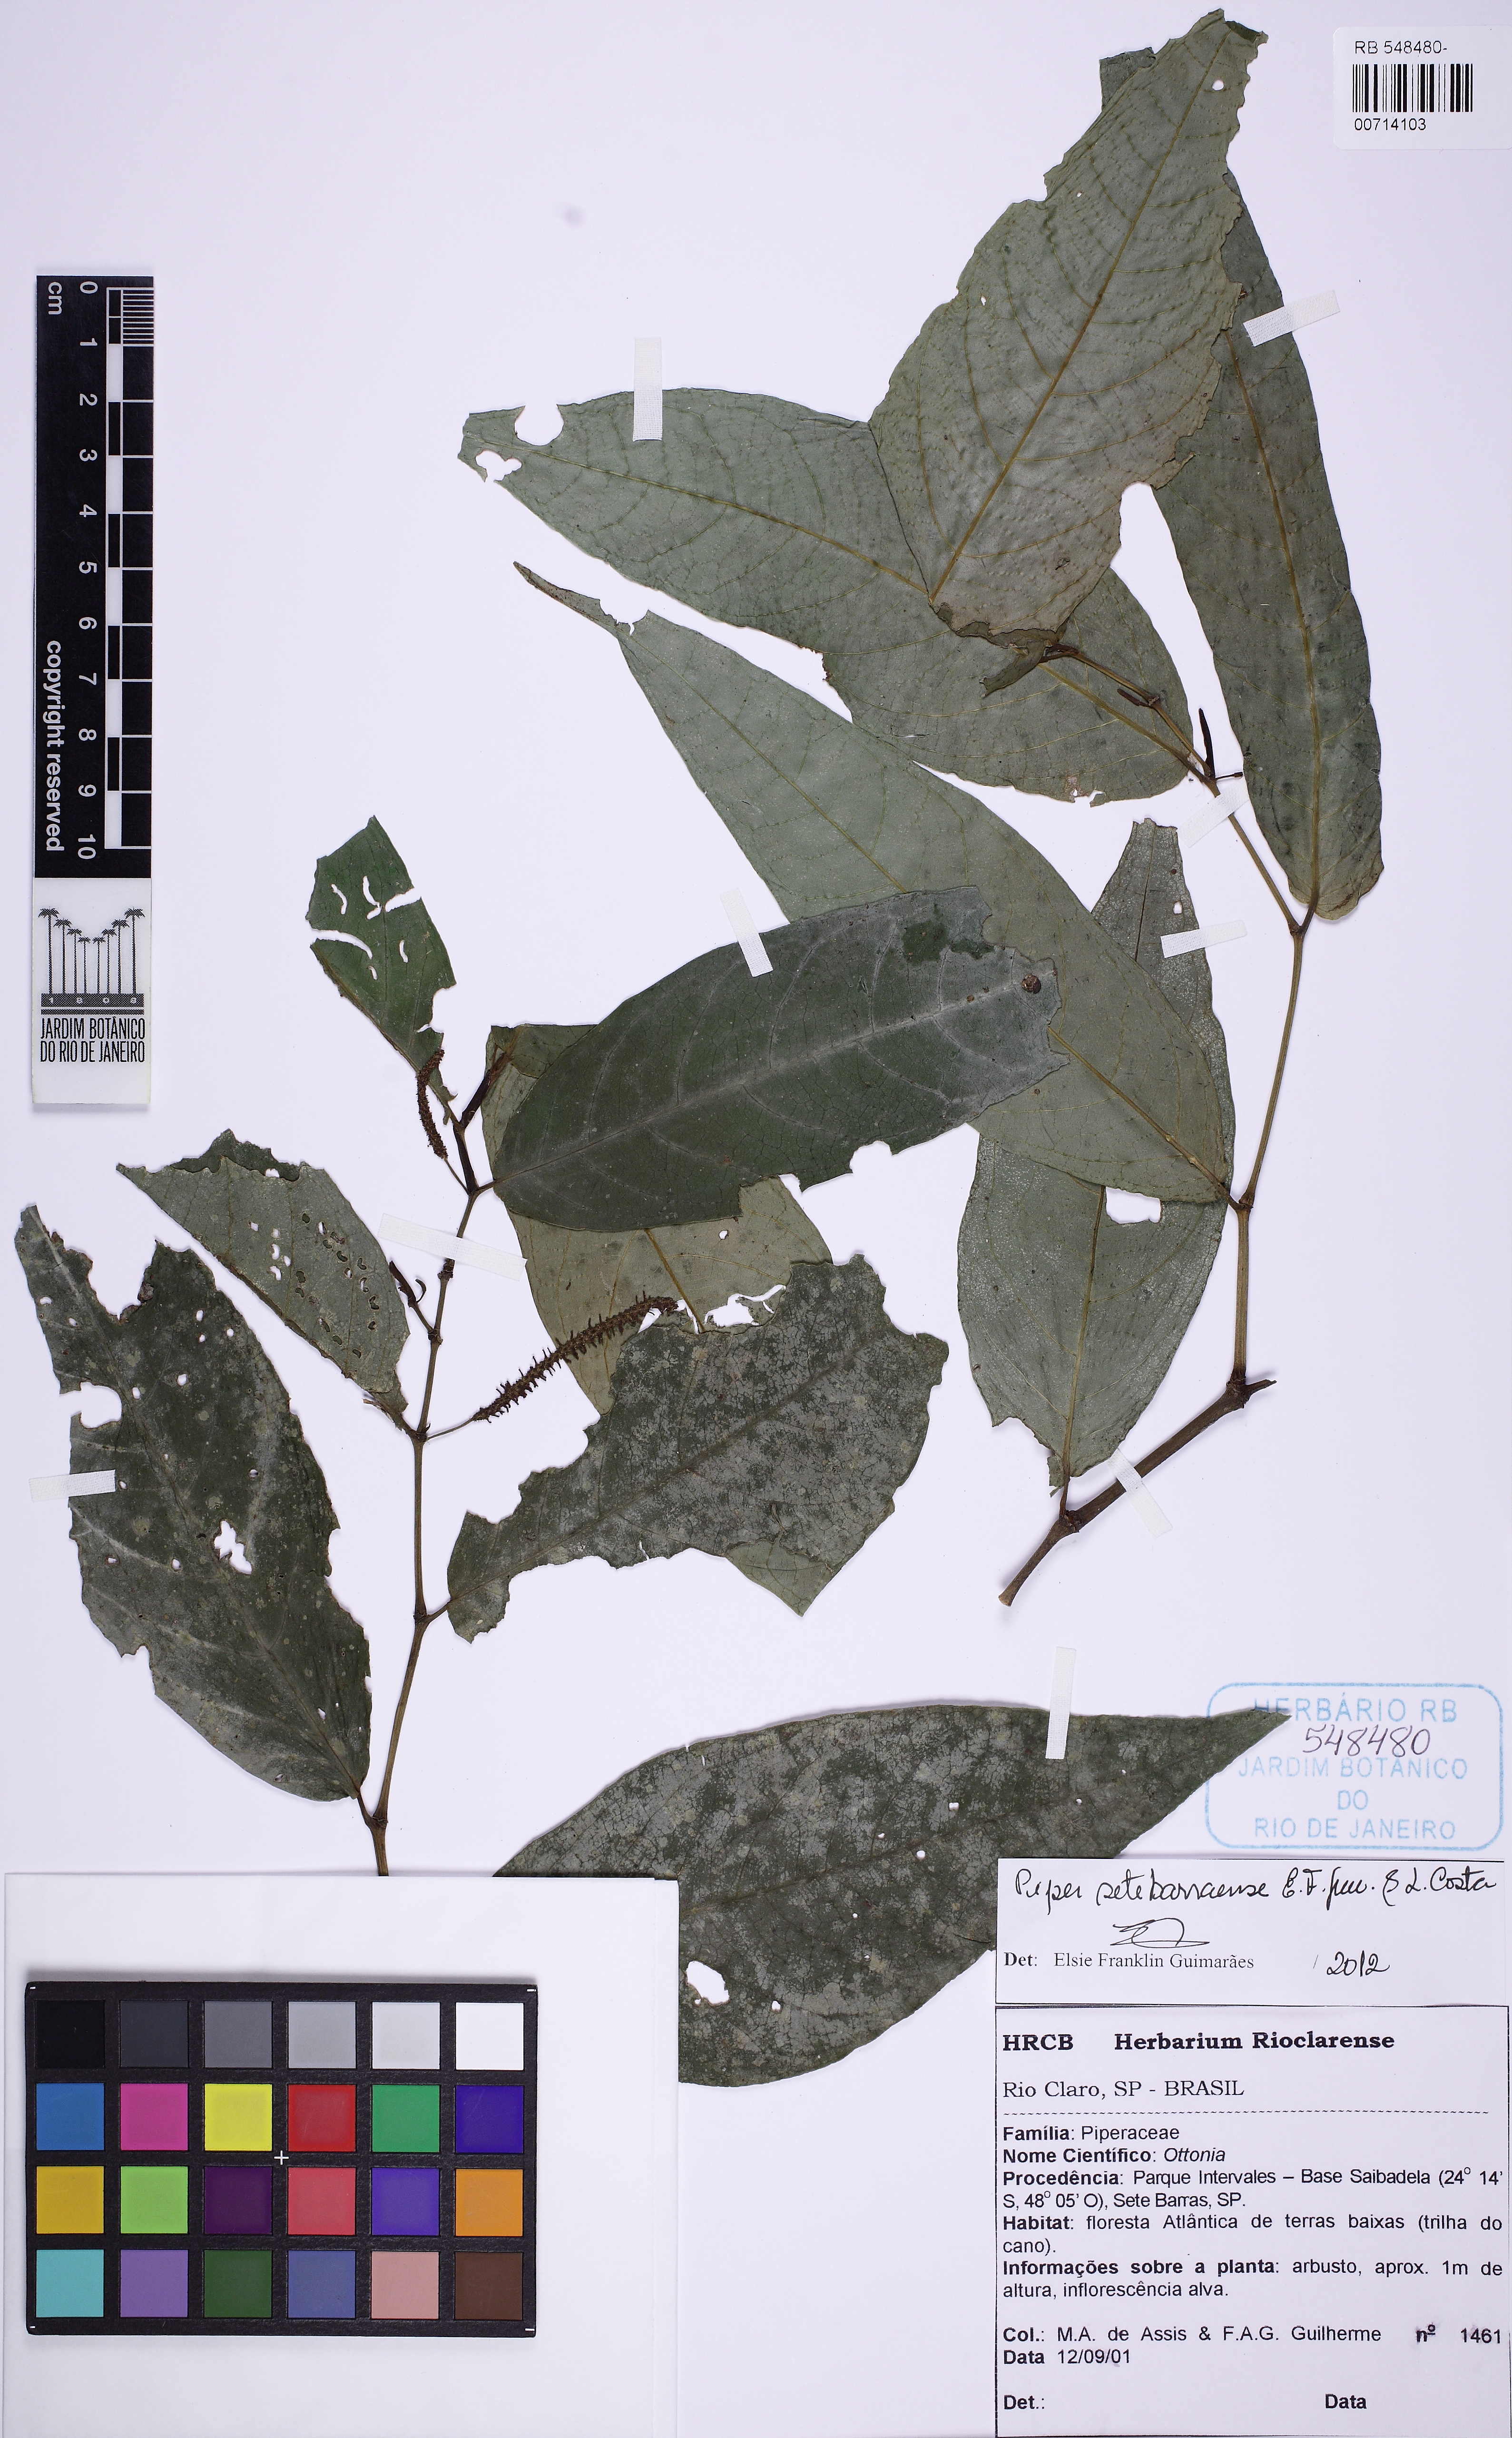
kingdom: Plantae
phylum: Tracheophyta
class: Magnoliopsida
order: Piperales
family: Piperaceae
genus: Piper
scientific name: Piper setebarraense
